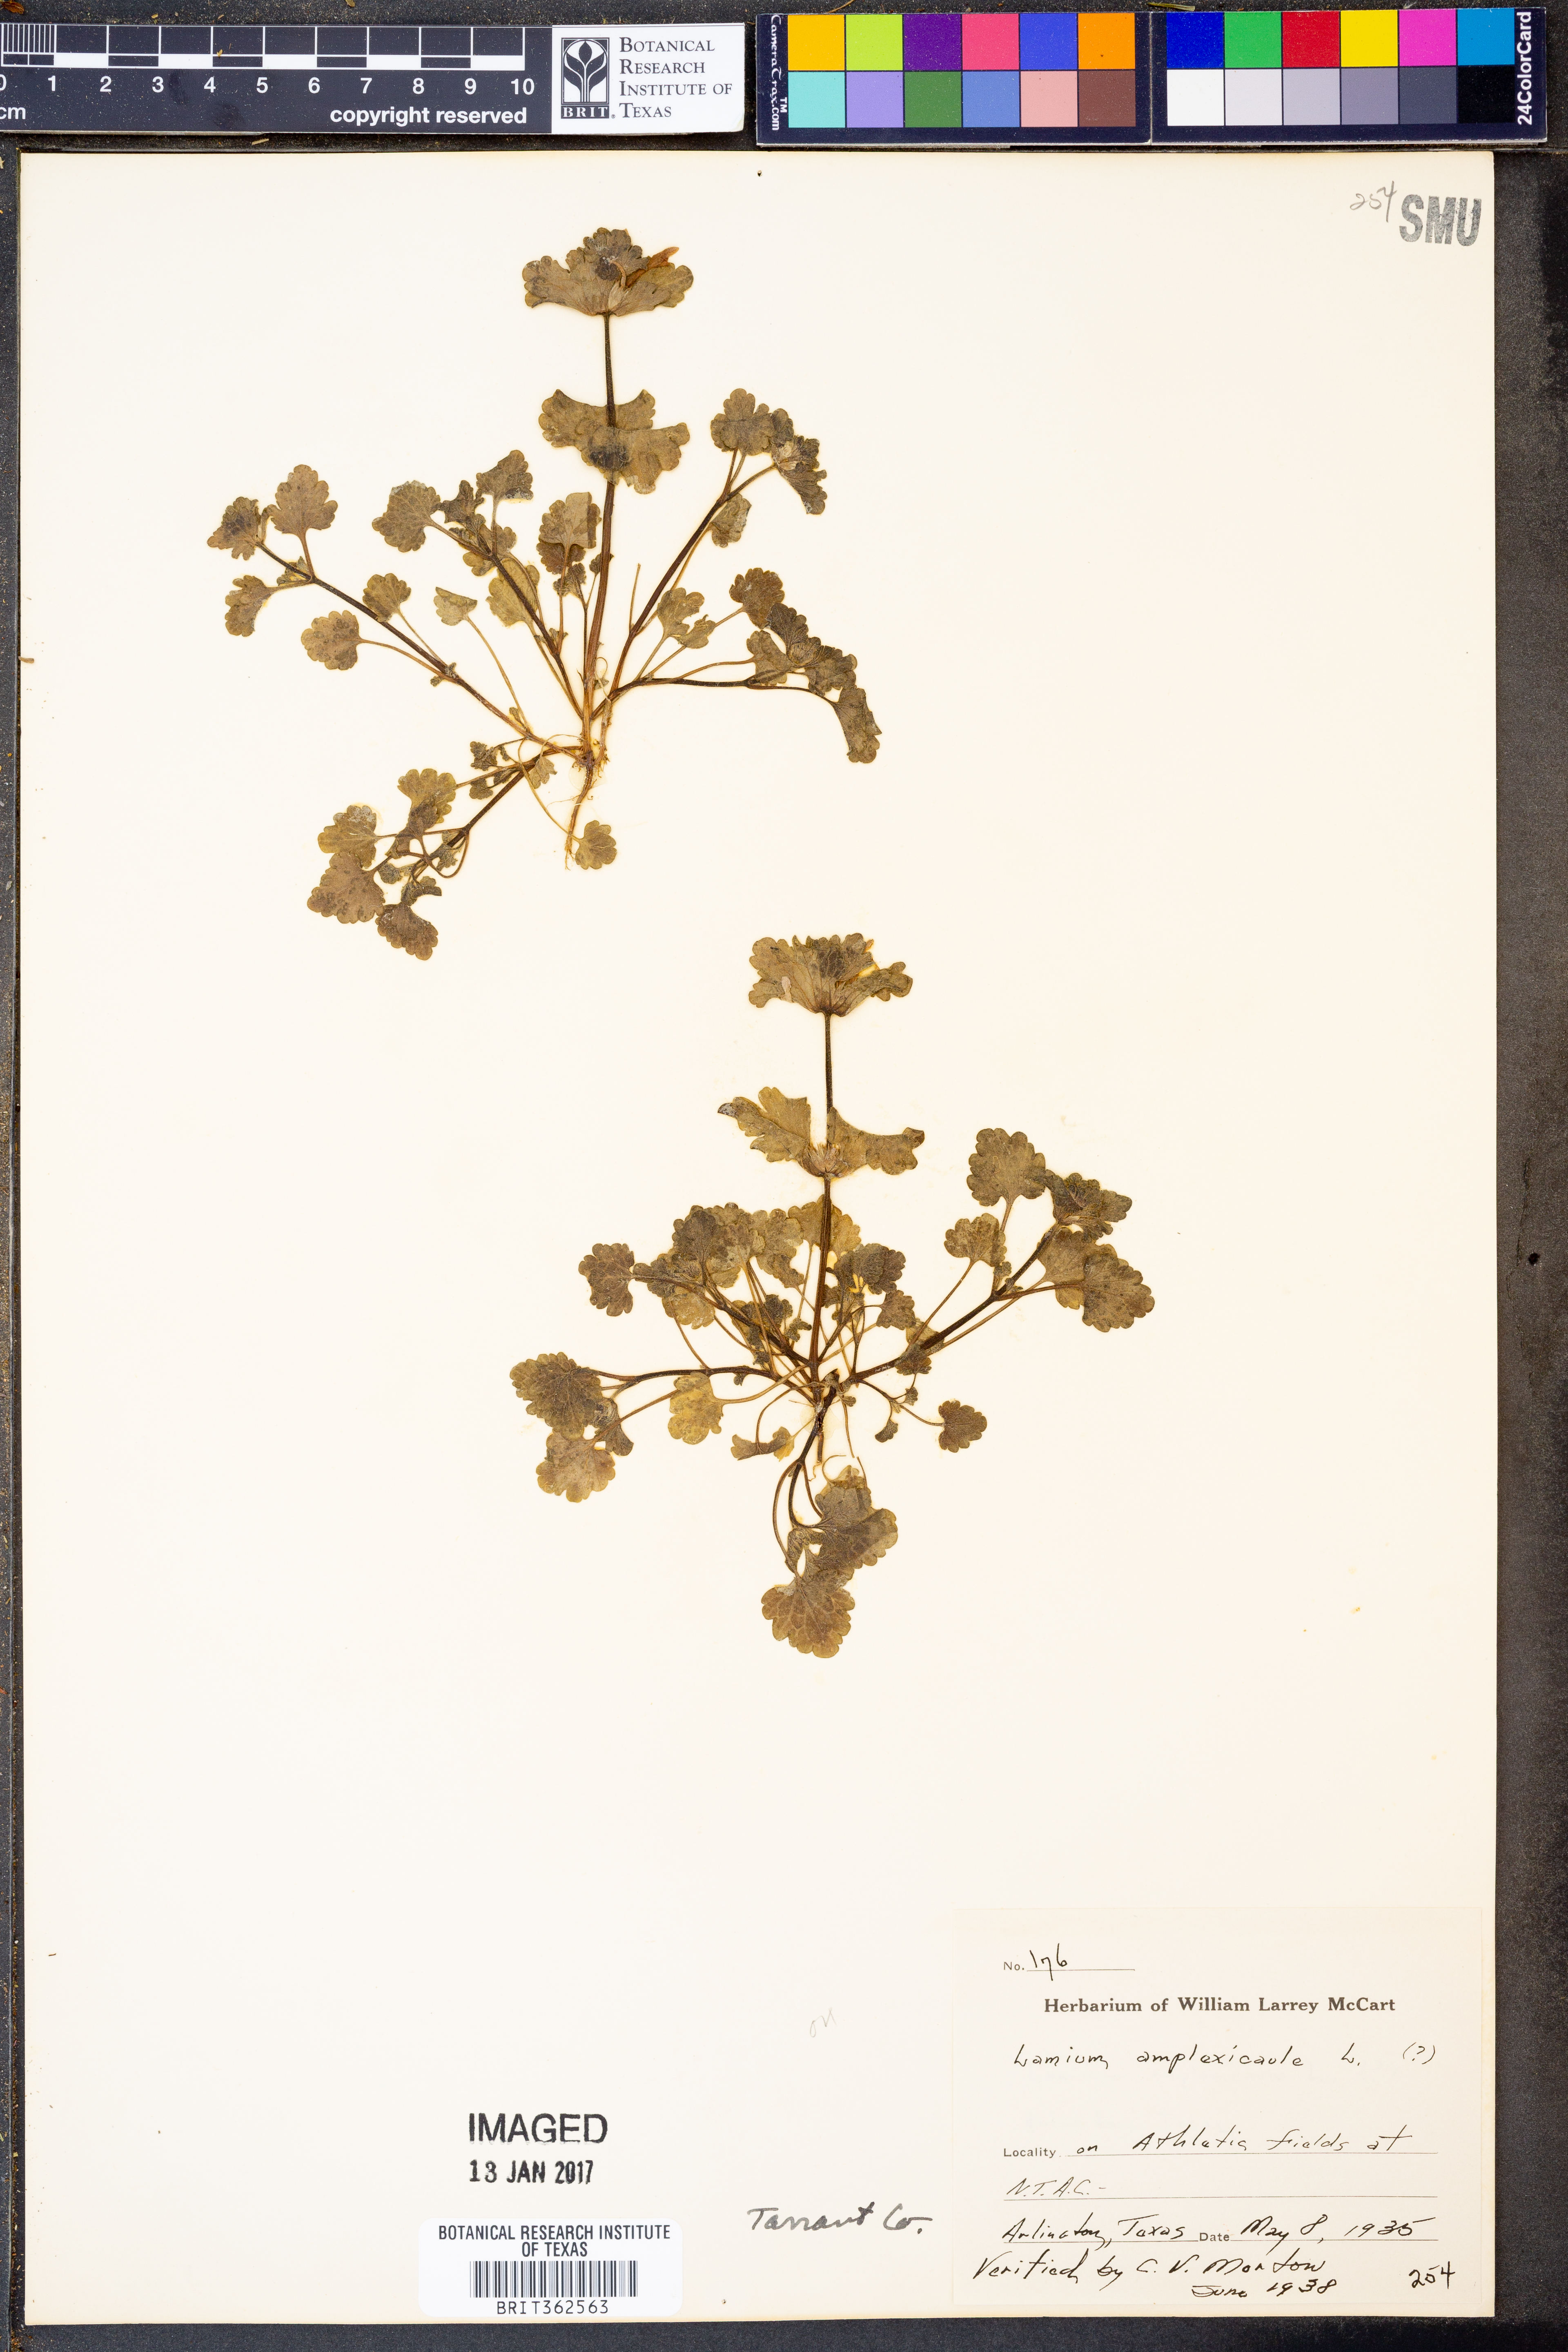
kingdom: Plantae
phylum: Tracheophyta
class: Magnoliopsida
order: Lamiales
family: Lamiaceae
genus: Lamium
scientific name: Lamium amplexicaule
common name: Henbit dead-nettle
